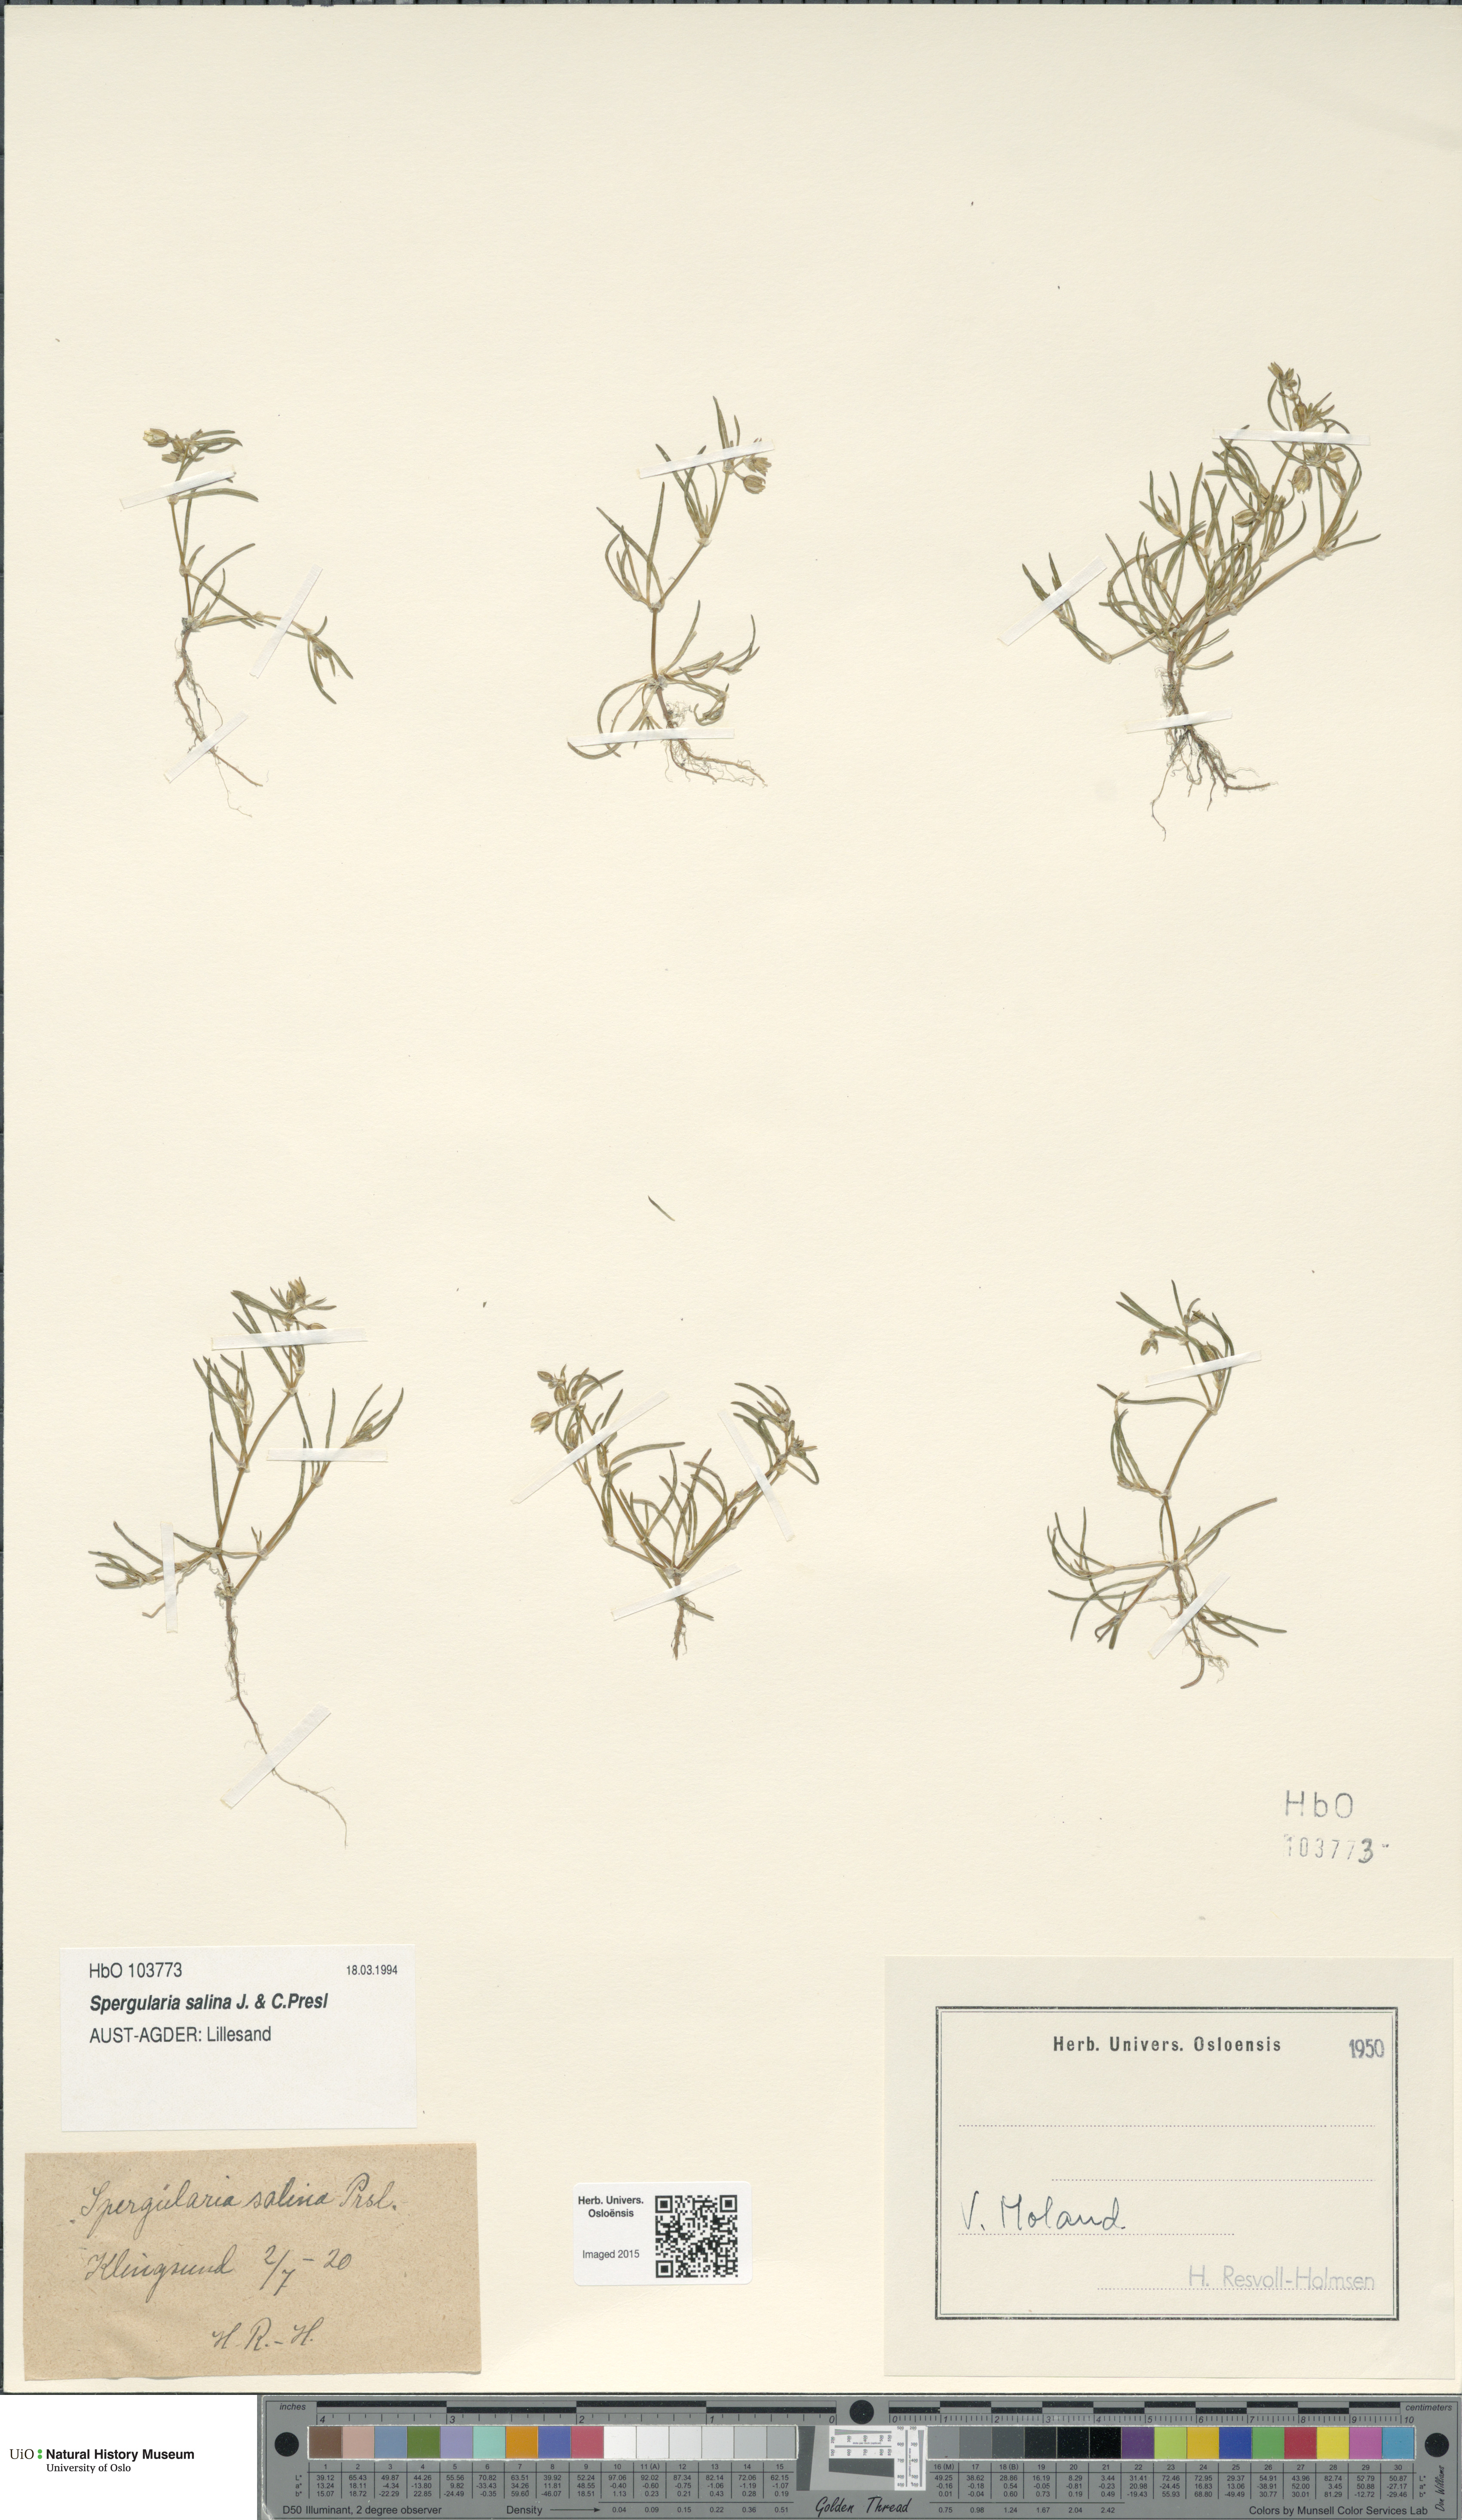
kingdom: Plantae
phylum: Tracheophyta
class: Magnoliopsida
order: Caryophyllales
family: Caryophyllaceae
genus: Spergularia
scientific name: Spergularia marina
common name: Lesser sea-spurrey
